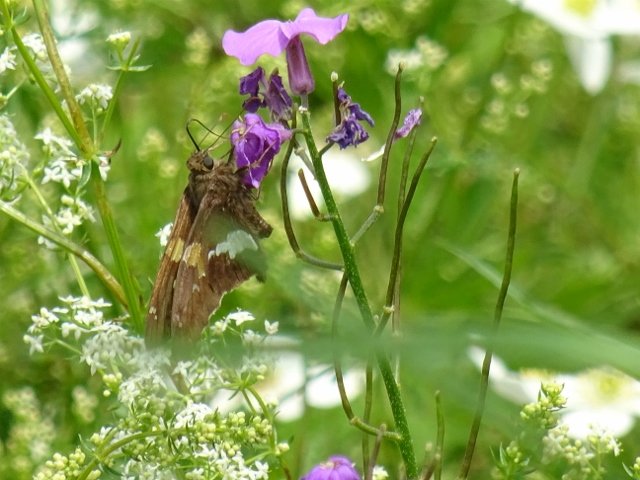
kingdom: Animalia
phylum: Arthropoda
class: Insecta
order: Lepidoptera
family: Hesperiidae
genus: Epargyreus
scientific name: Epargyreus clarus
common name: Silver-spotted Skipper
